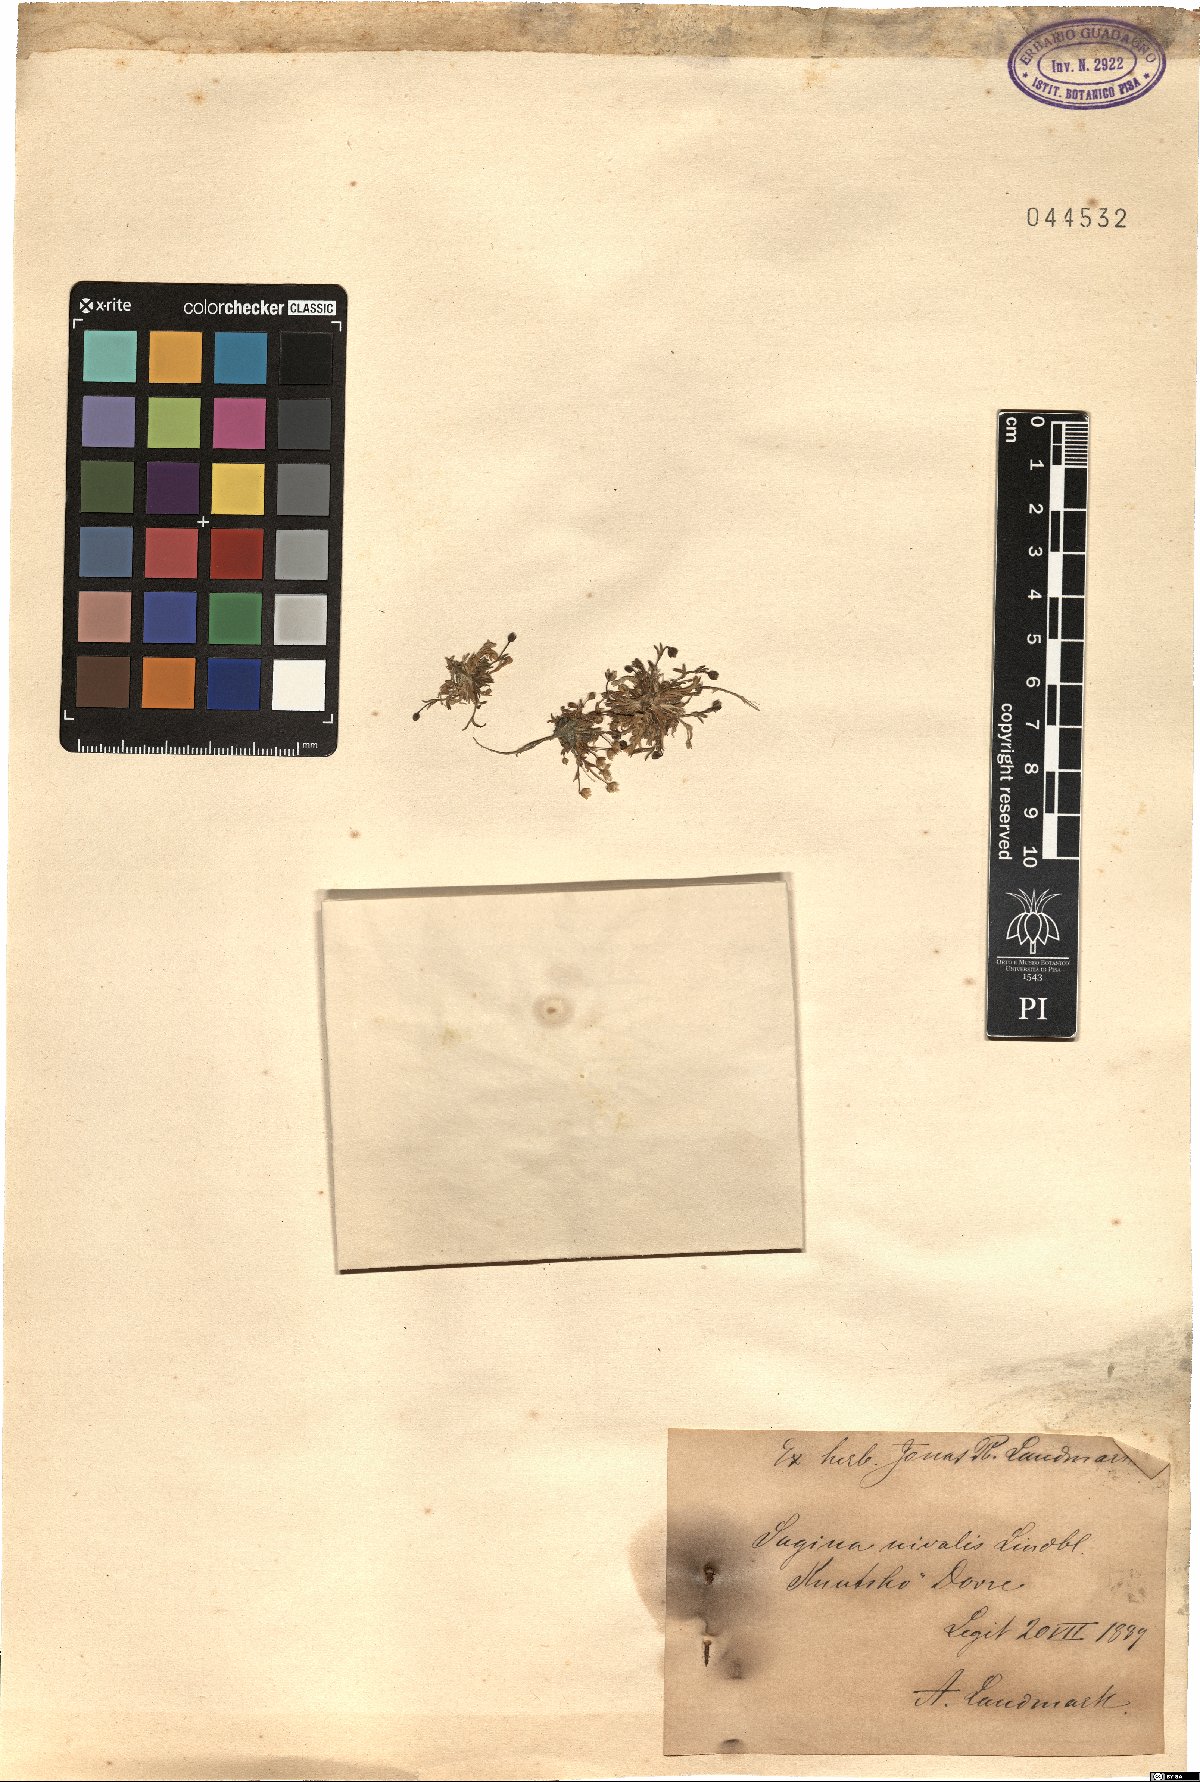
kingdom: Plantae
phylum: Tracheophyta
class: Magnoliopsida
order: Caryophyllales
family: Caryophyllaceae
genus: Sagina
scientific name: Sagina nivalis
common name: Snow pearlwort
